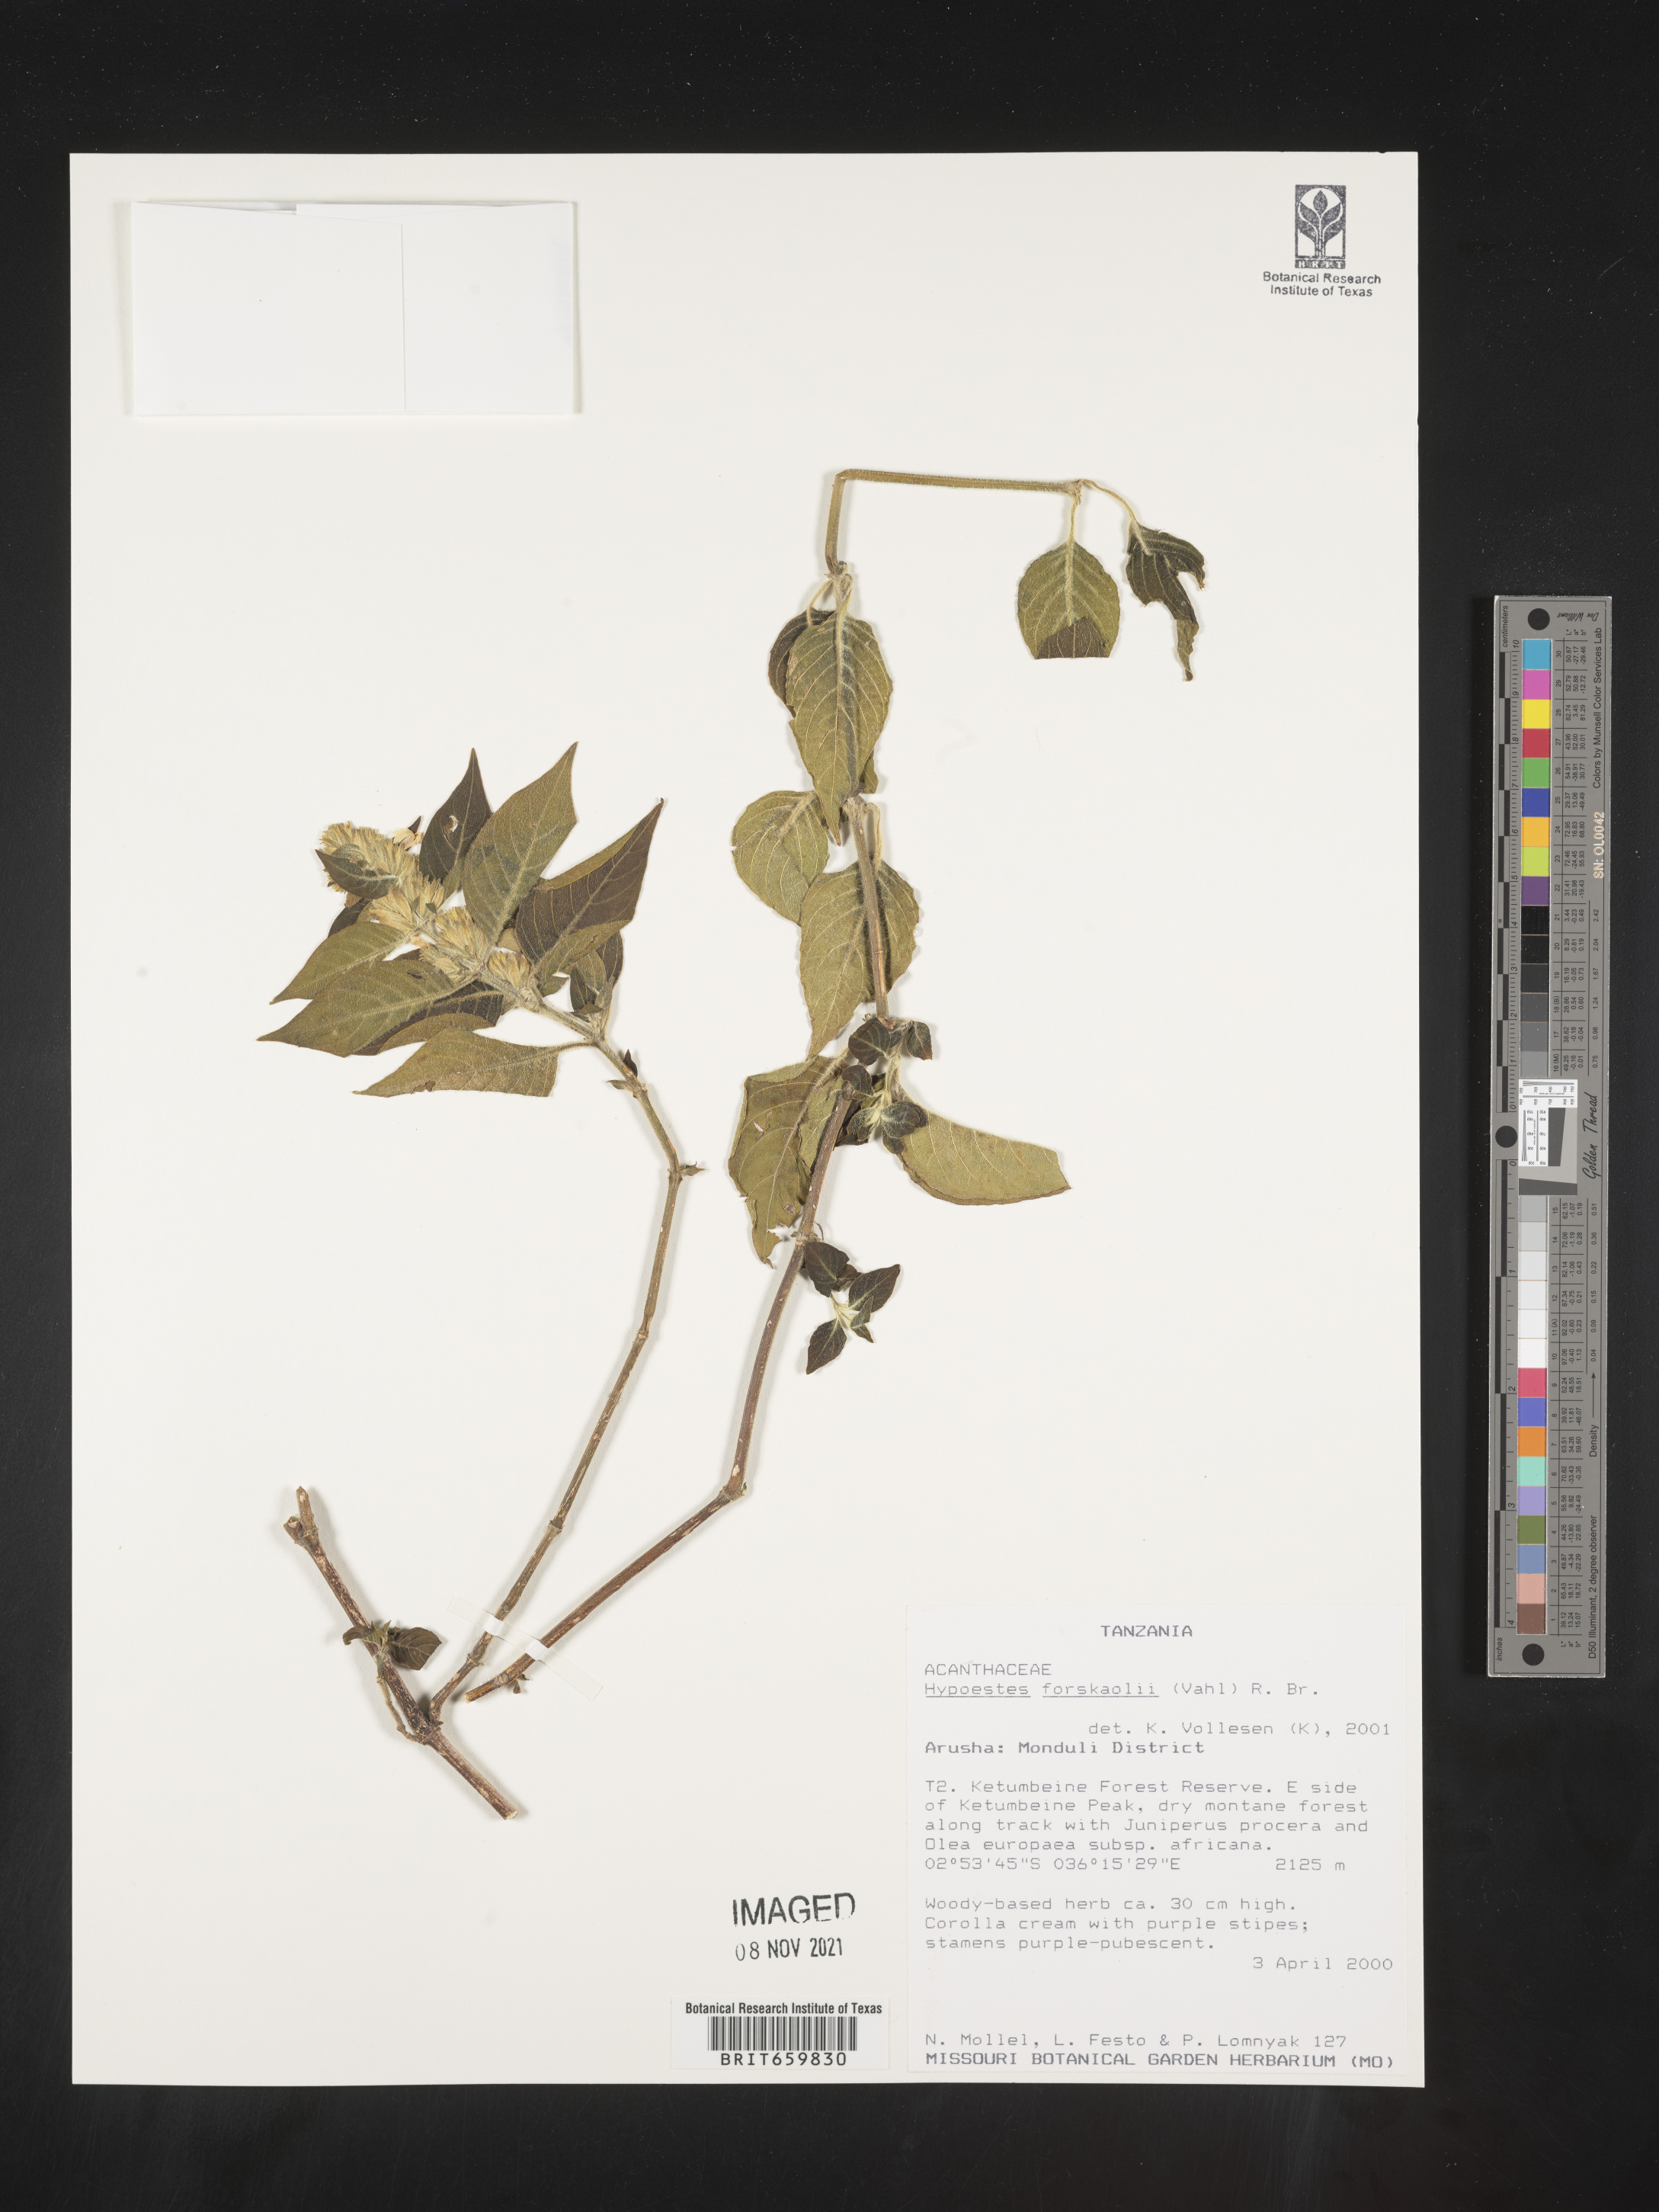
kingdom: Plantae
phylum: Tracheophyta
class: Magnoliopsida
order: Lamiales
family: Acanthaceae
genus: Hypoestes
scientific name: Hypoestes forskaolii
